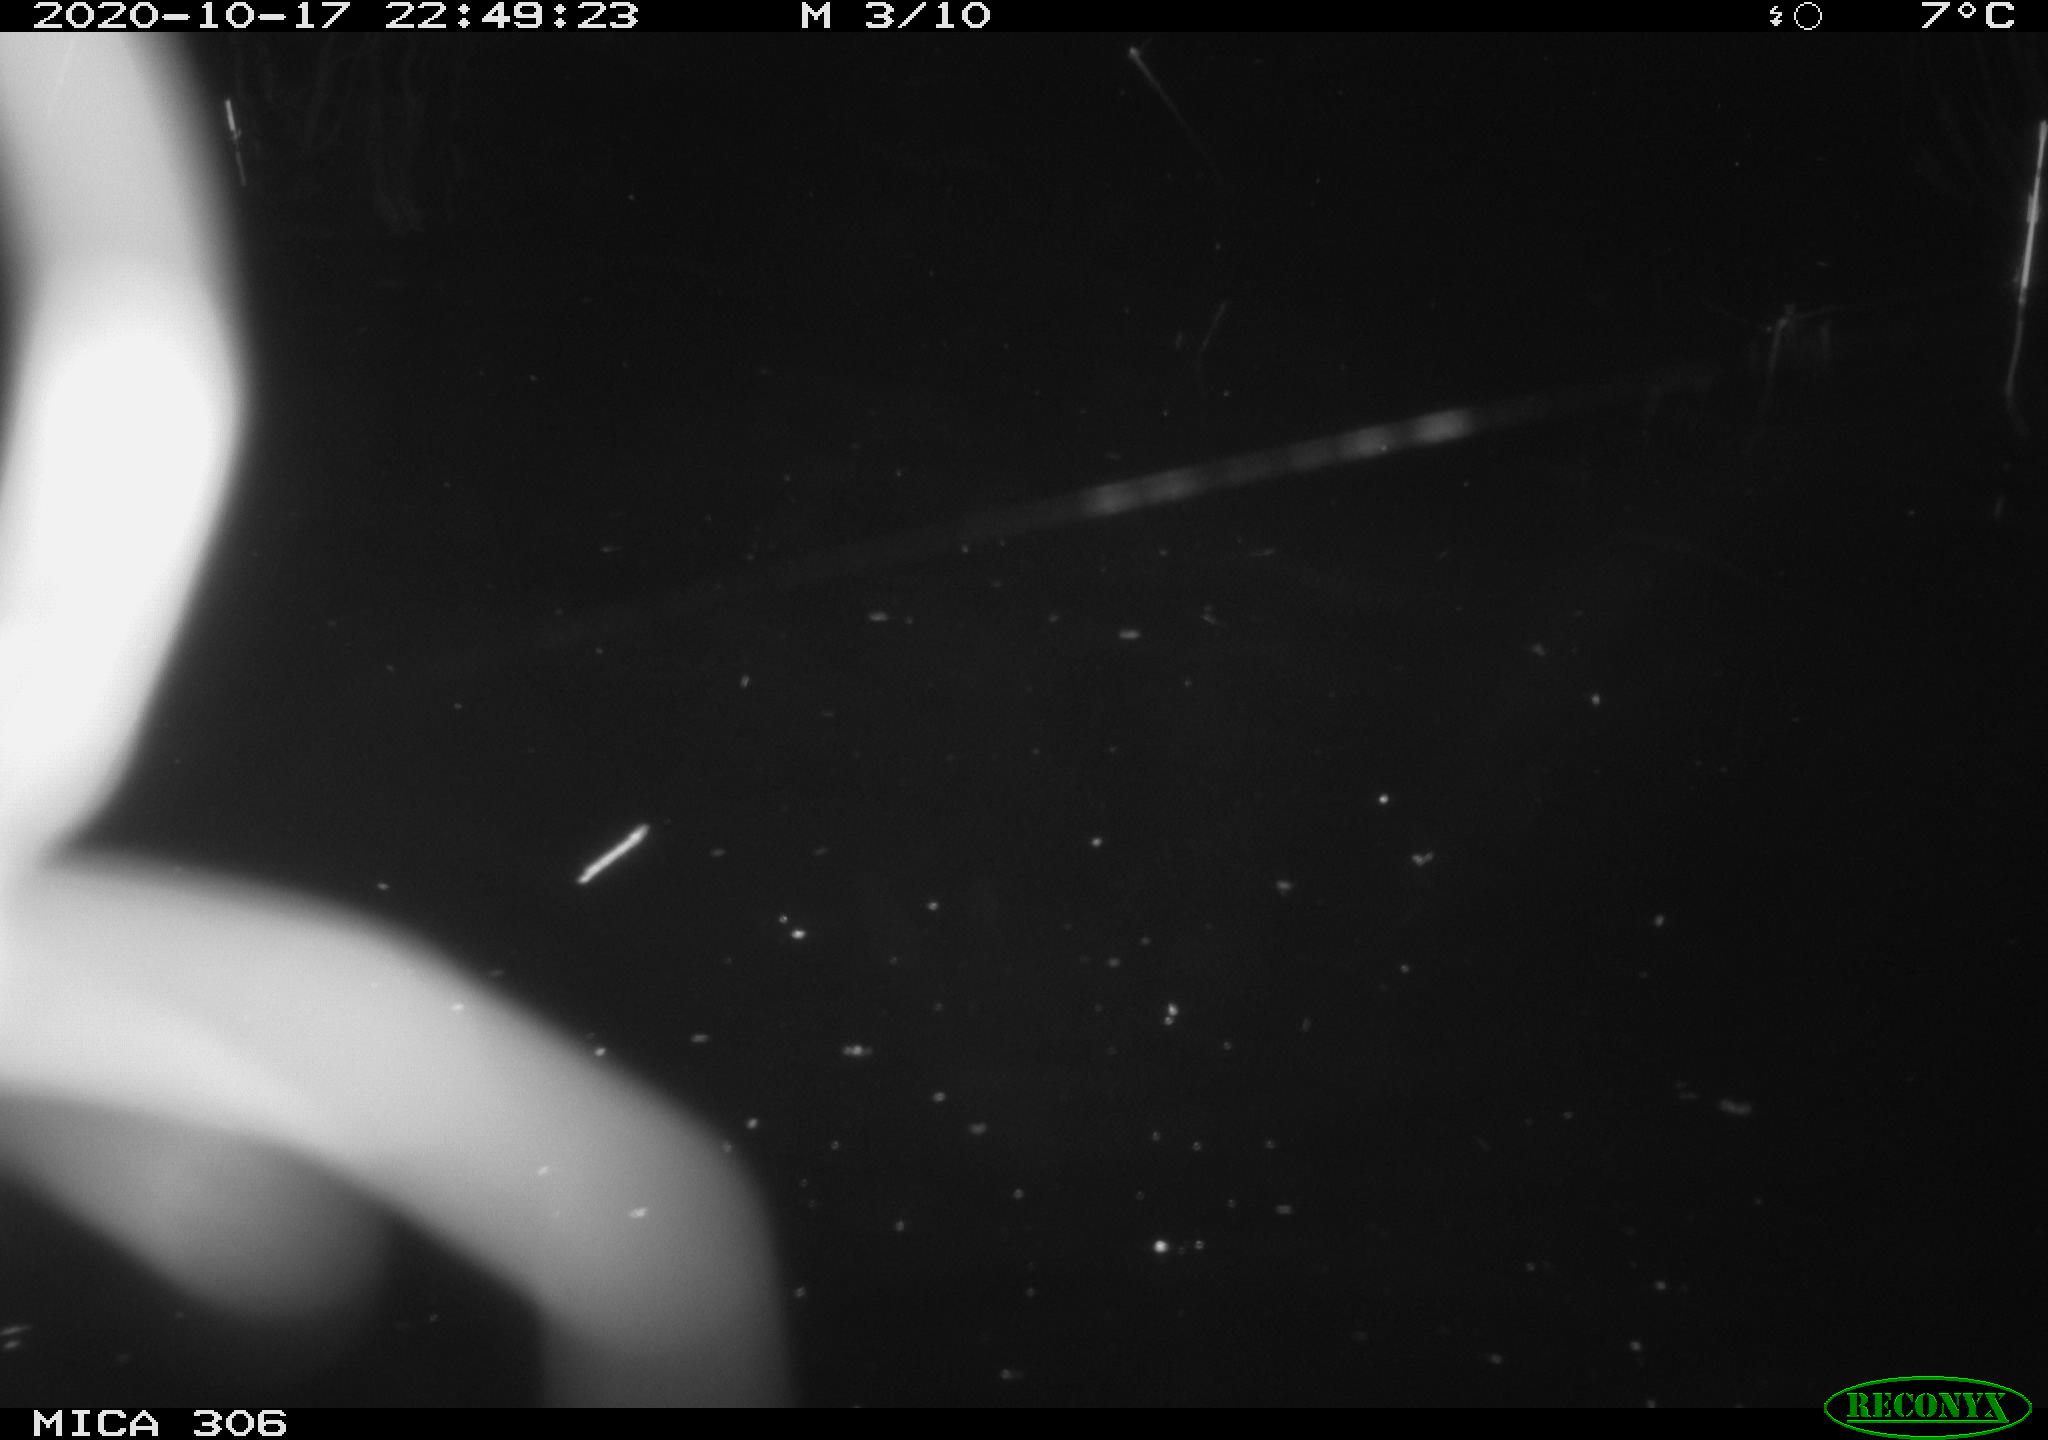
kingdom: Animalia
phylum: Chordata
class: Mammalia
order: Rodentia
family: Muridae
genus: Rattus
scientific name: Rattus norvegicus
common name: Brown rat
